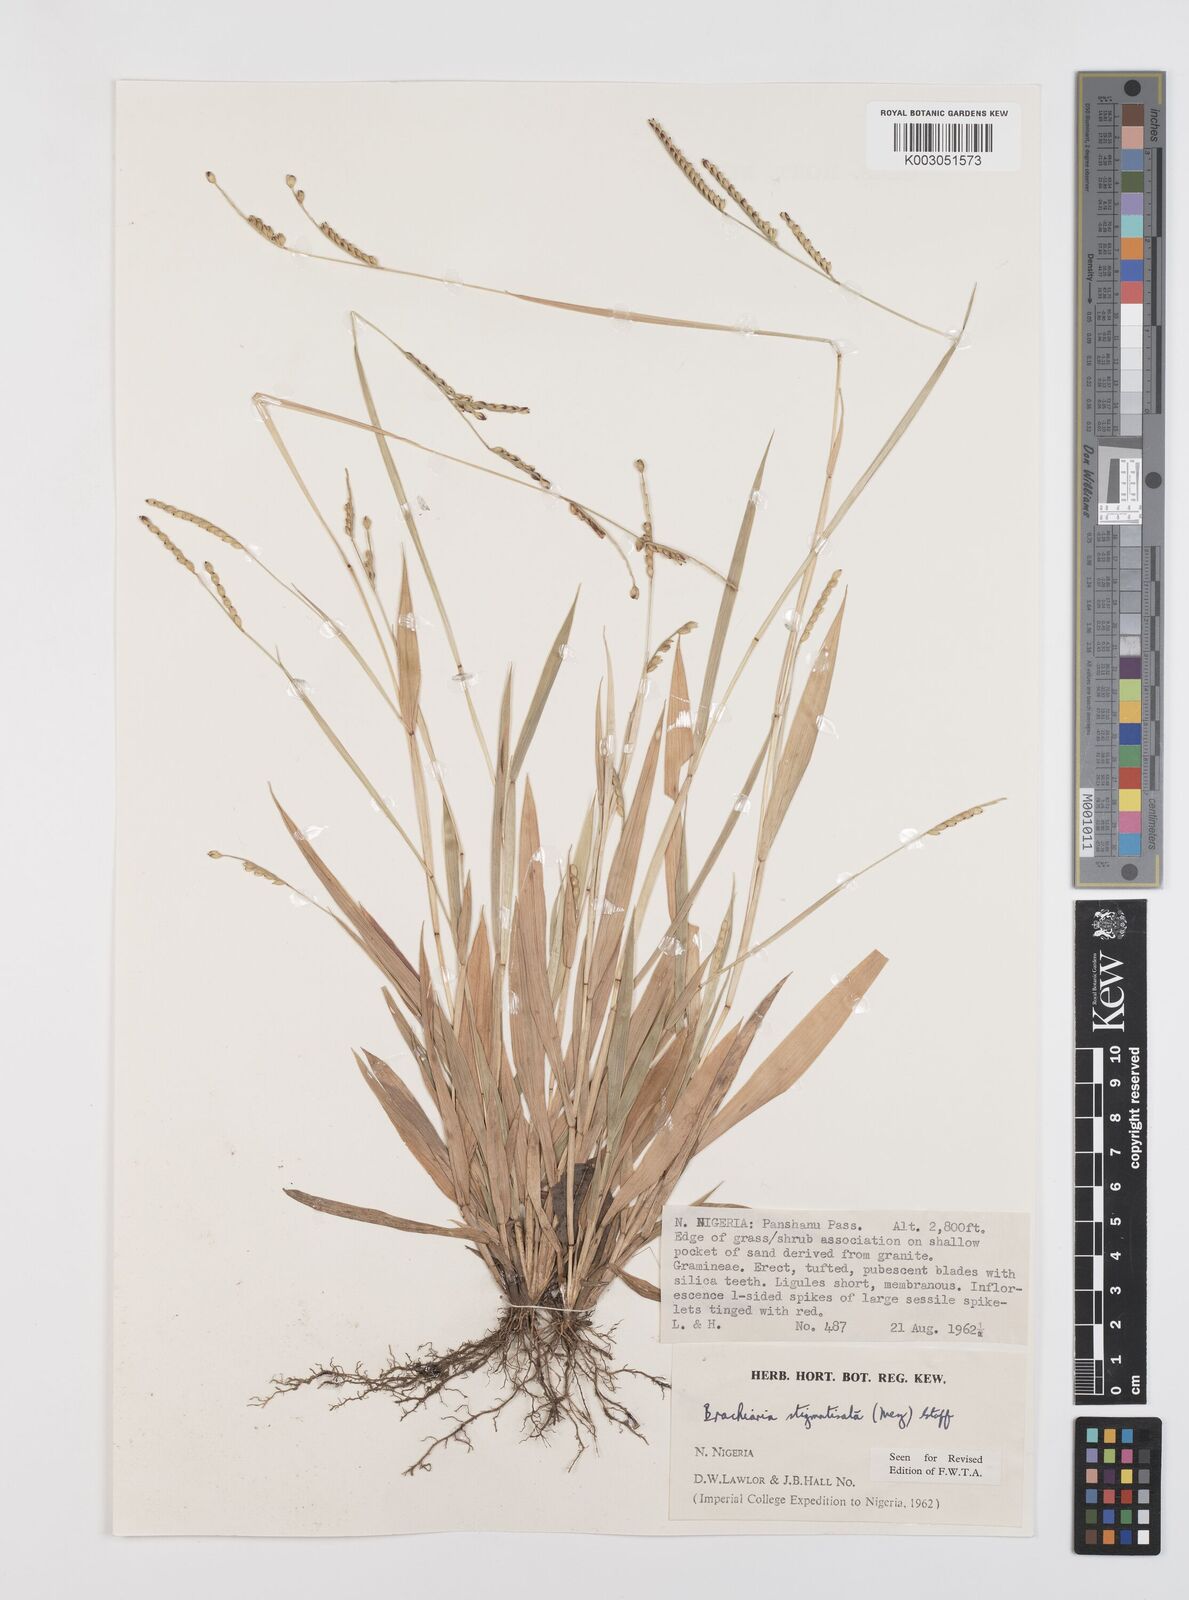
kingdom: Plantae
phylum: Tracheophyta
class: Liliopsida
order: Poales
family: Poaceae
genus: Urochloa
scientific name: Urochloa stigmatisata
